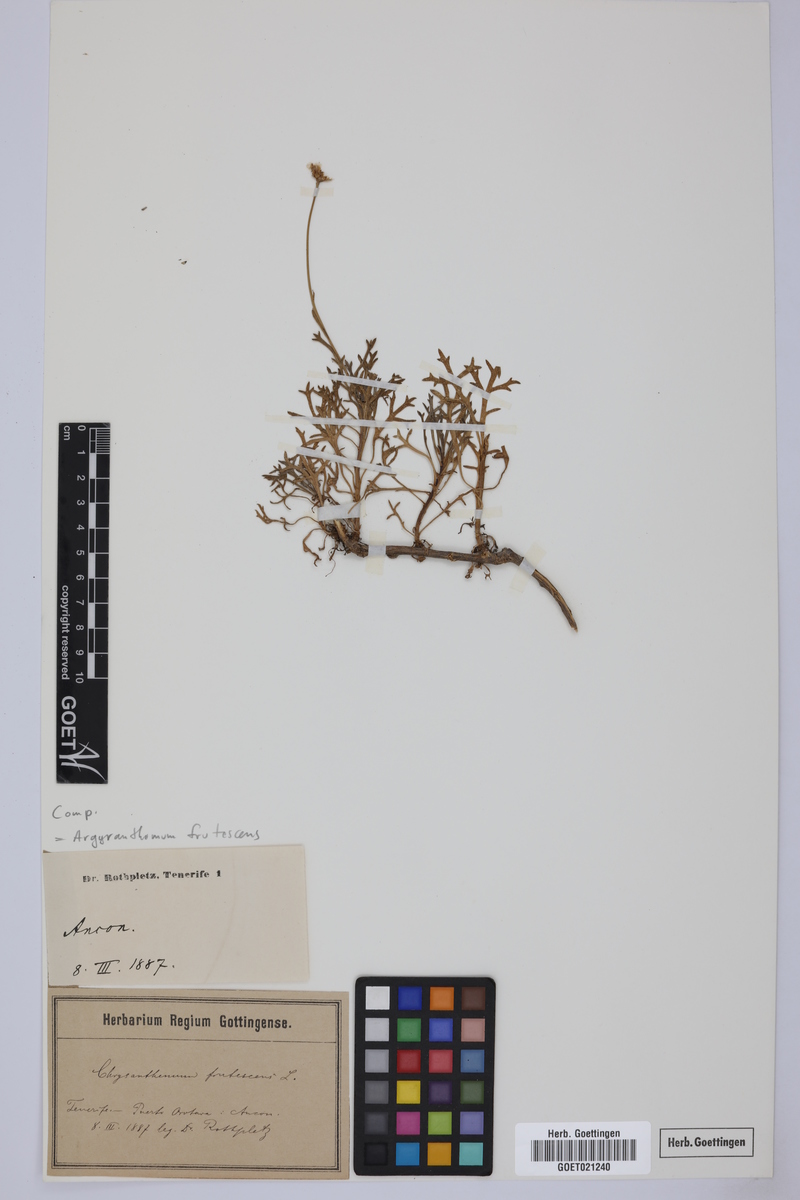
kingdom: Plantae
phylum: Tracheophyta
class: Magnoliopsida
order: Asterales
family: Asteraceae
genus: Argyranthemum
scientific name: Argyranthemum frutescens
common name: Paris daisy
